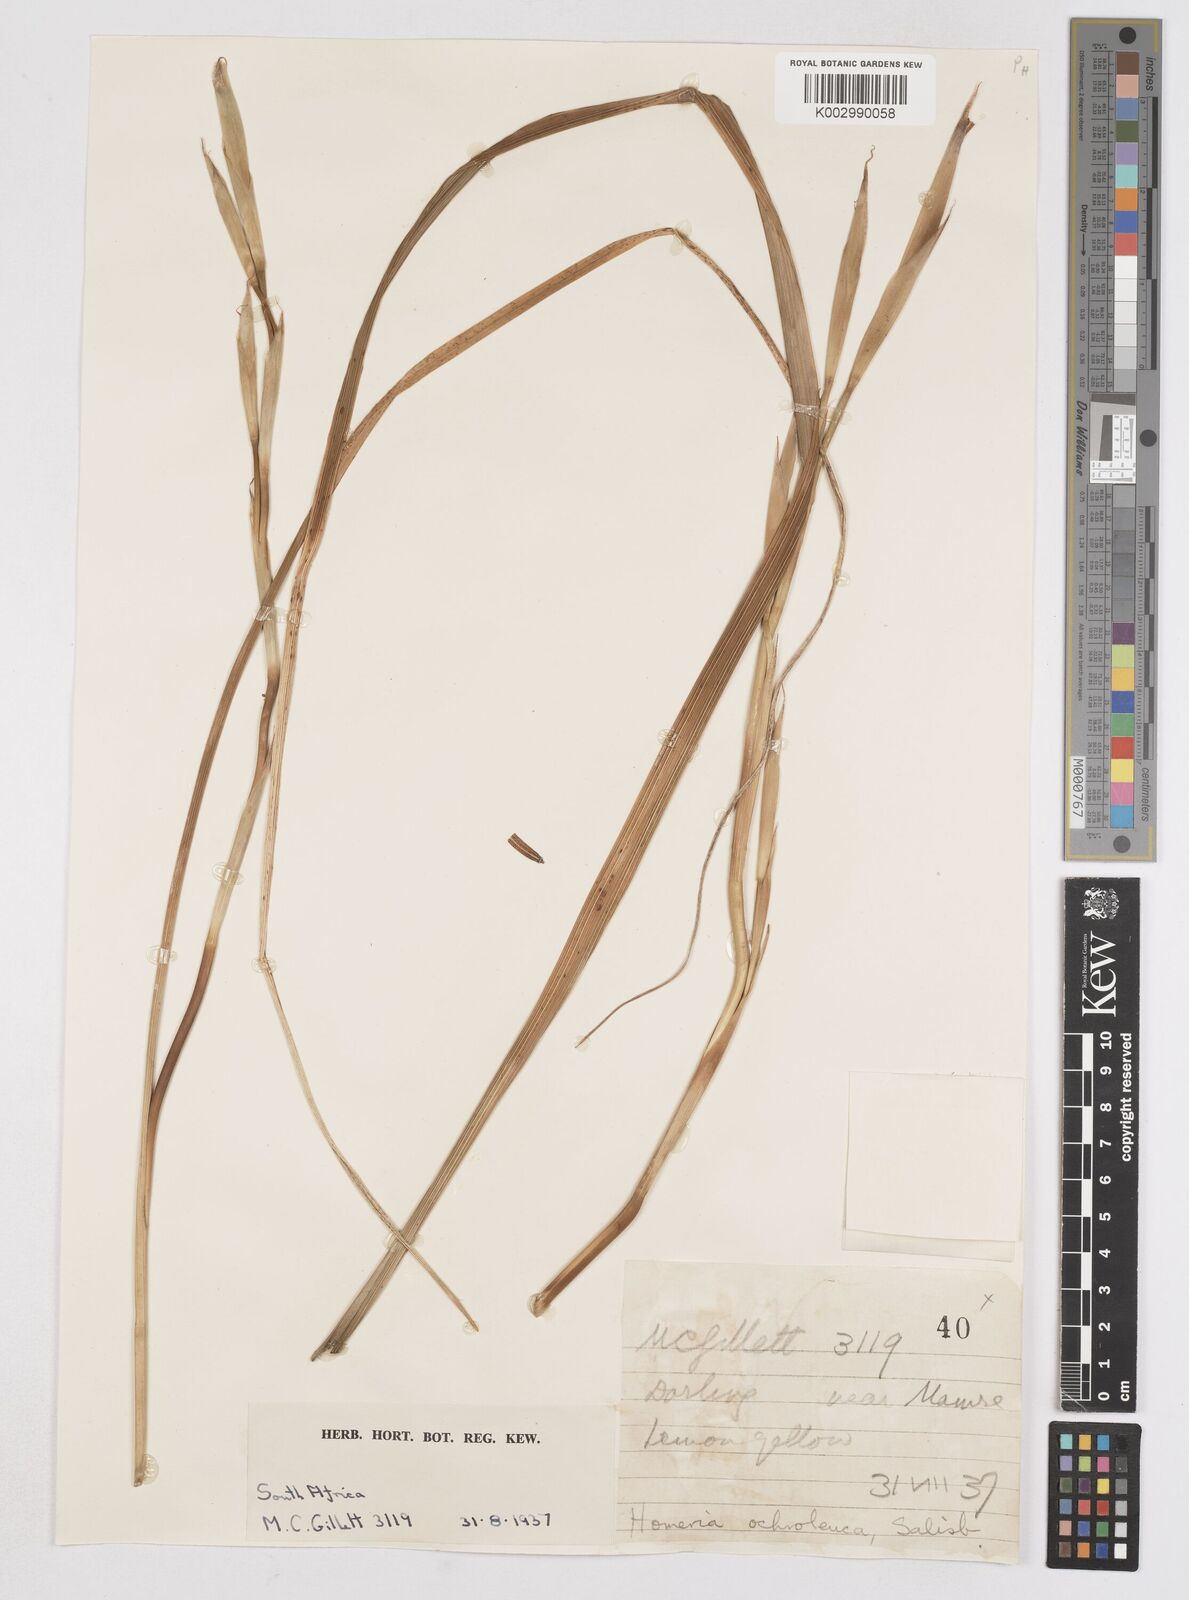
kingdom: Plantae
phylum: Tracheophyta
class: Liliopsida
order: Asparagales
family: Iridaceae
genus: Moraea
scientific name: Moraea ochroleuca
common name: Red tulp
